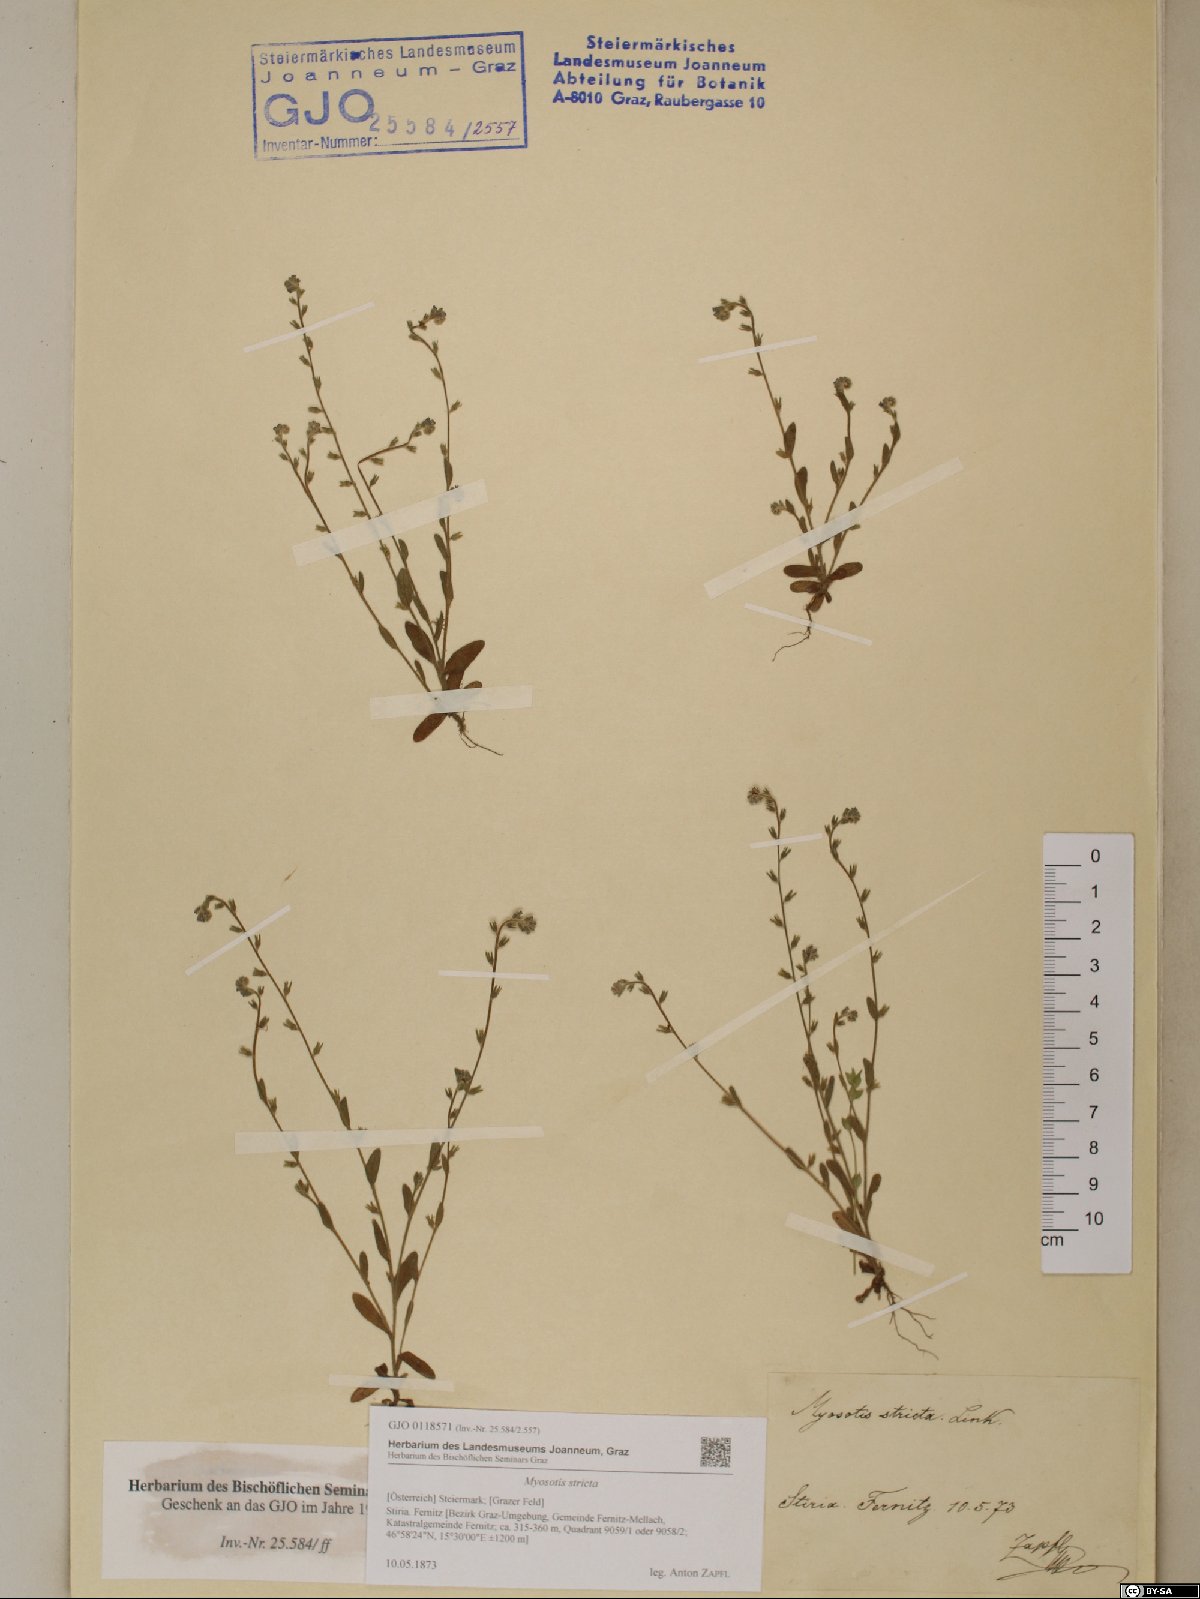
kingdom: Plantae
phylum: Tracheophyta
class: Magnoliopsida
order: Boraginales
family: Boraginaceae
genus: Myosotis
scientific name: Myosotis stricta
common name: Strict forget-me-not
